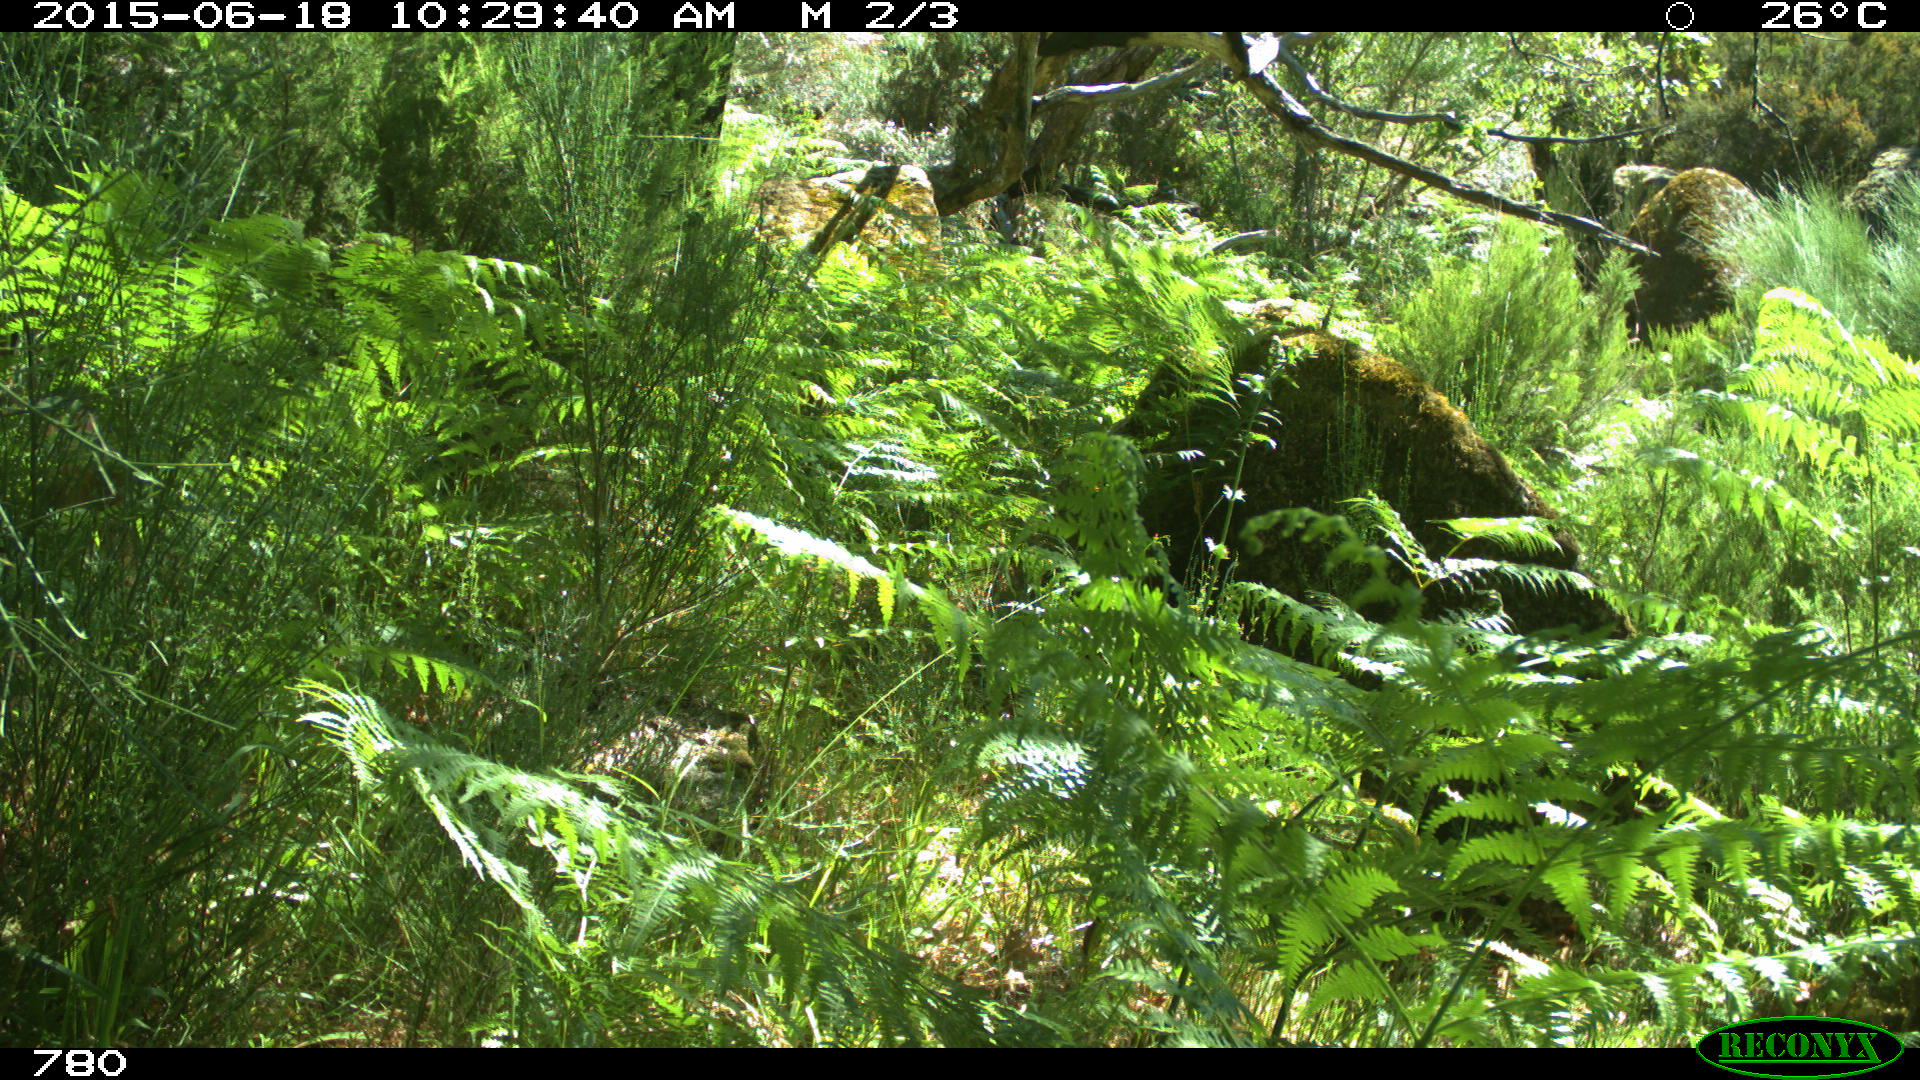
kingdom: Animalia
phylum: Chordata
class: Mammalia
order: Artiodactyla
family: Cervidae
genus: Capreolus
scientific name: Capreolus capreolus
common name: Western roe deer
